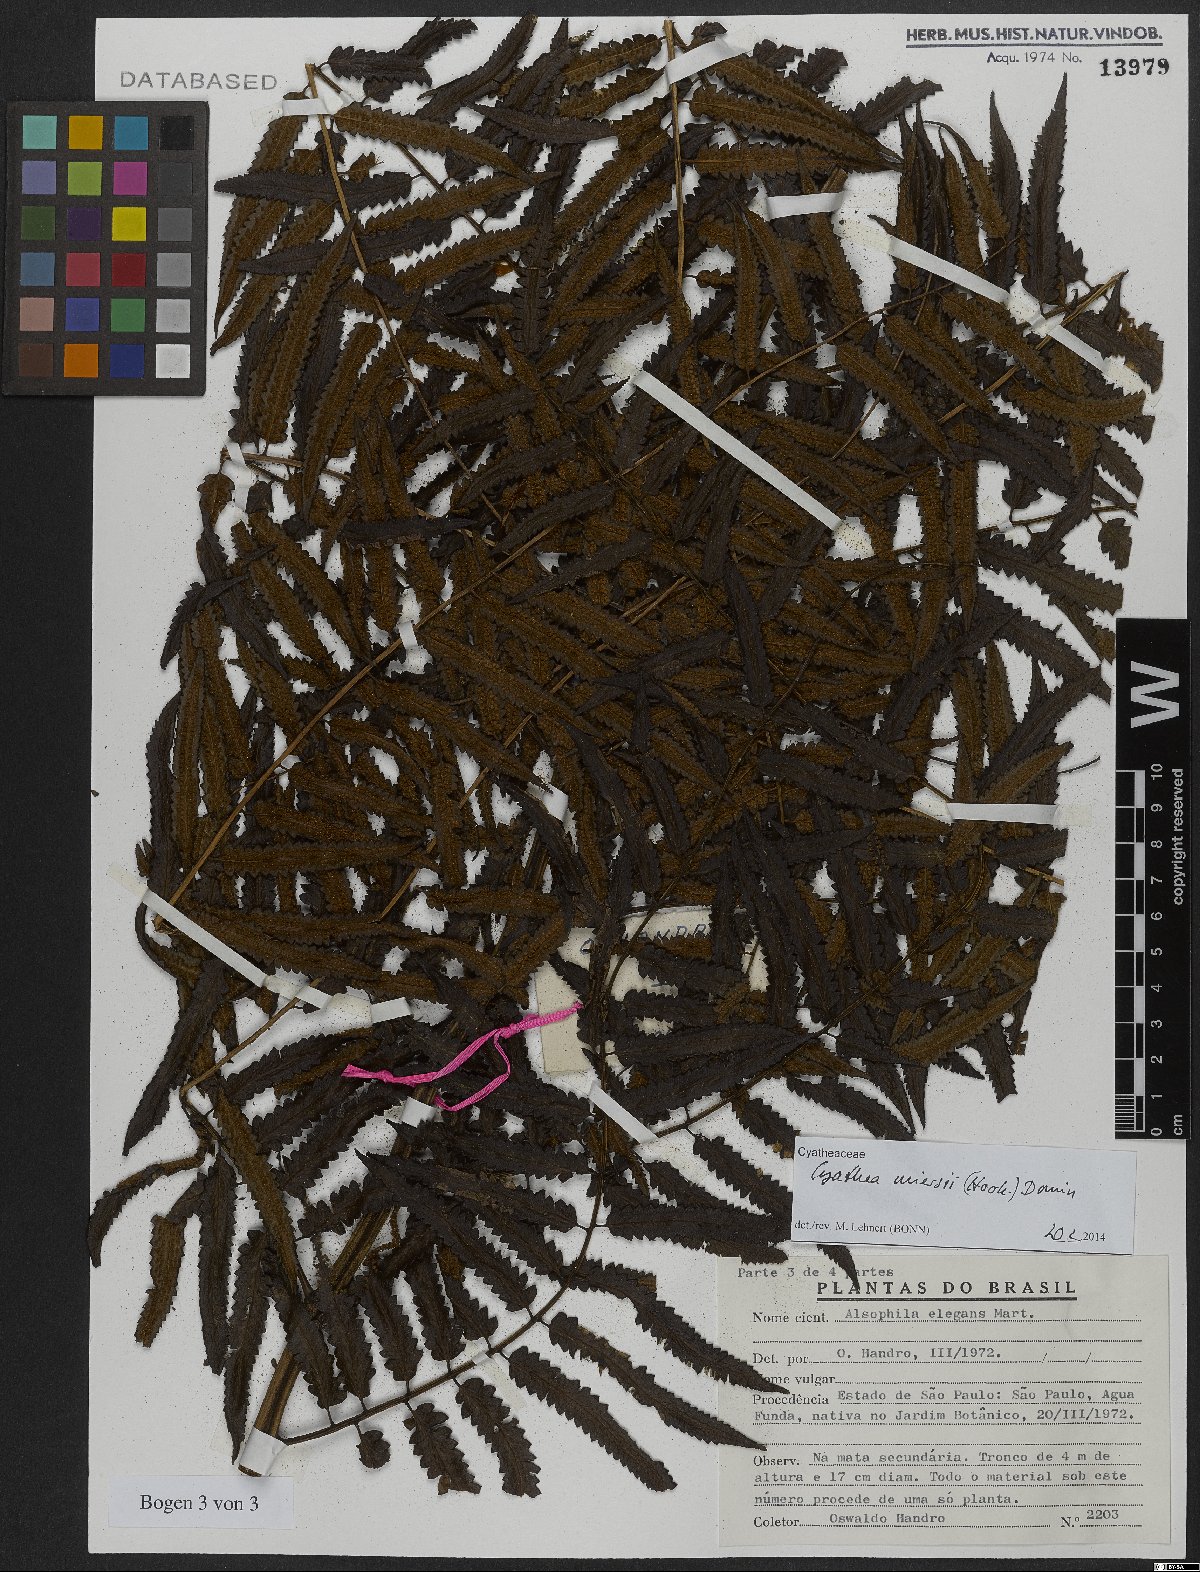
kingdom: Plantae
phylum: Tracheophyta
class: Polypodiopsida
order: Cyatheales
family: Cyatheaceae
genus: Cyathea
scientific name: Cyathea miersii
